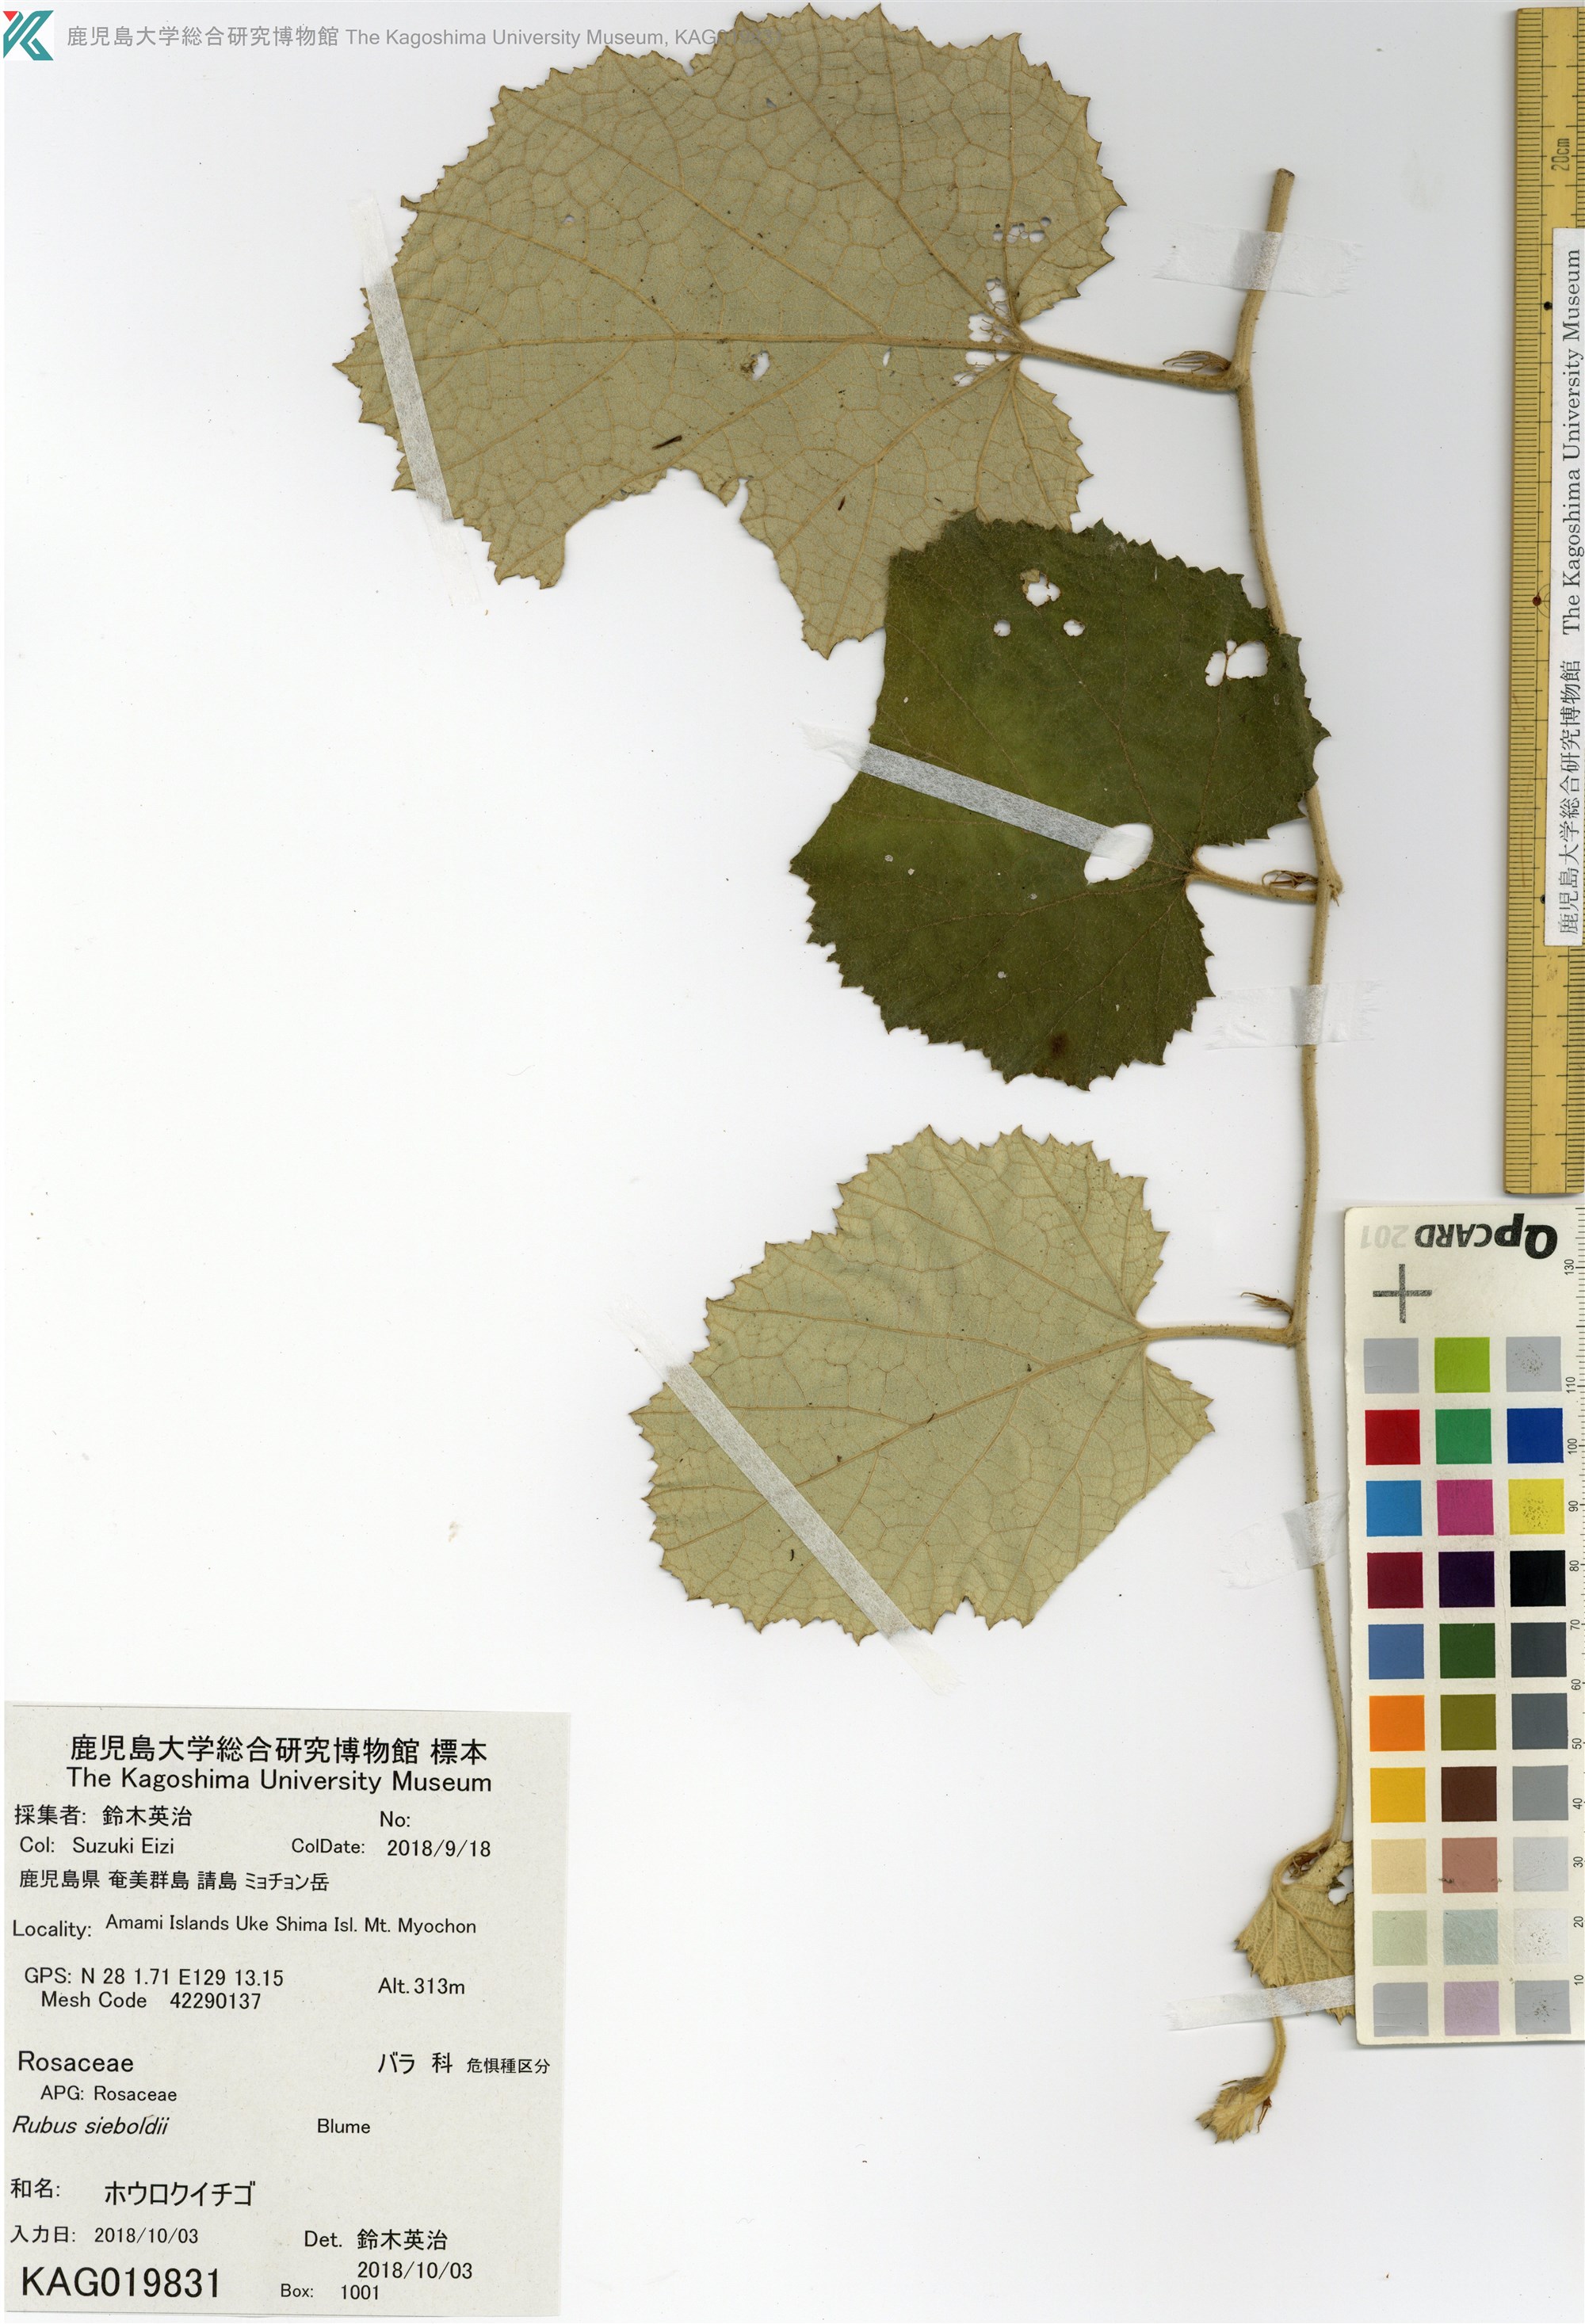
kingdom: Plantae
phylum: Tracheophyta
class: Magnoliopsida
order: Rosales
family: Rosaceae
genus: Rubus
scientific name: Rubus sieboldii
